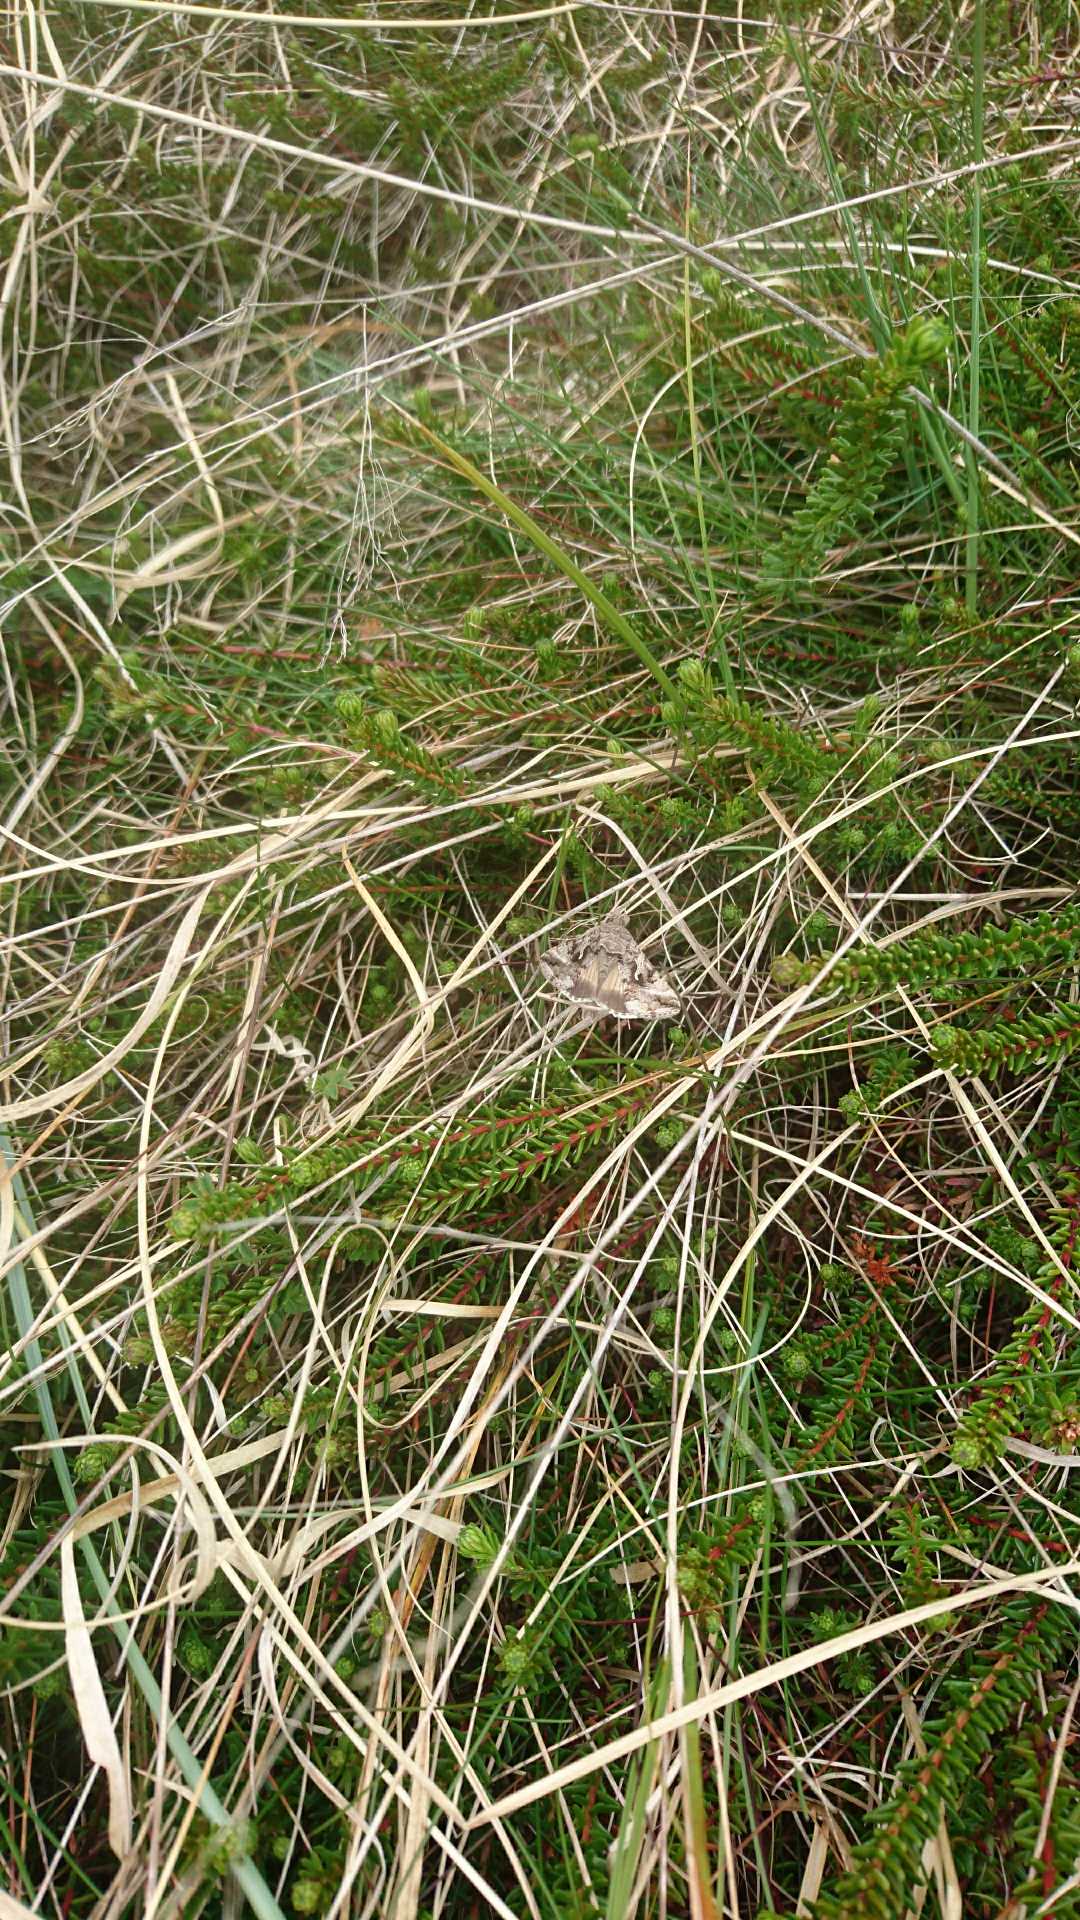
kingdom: Animalia
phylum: Arthropoda
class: Insecta
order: Lepidoptera
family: Noctuidae
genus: Autographa
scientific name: Autographa gamma
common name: Gammaugle
